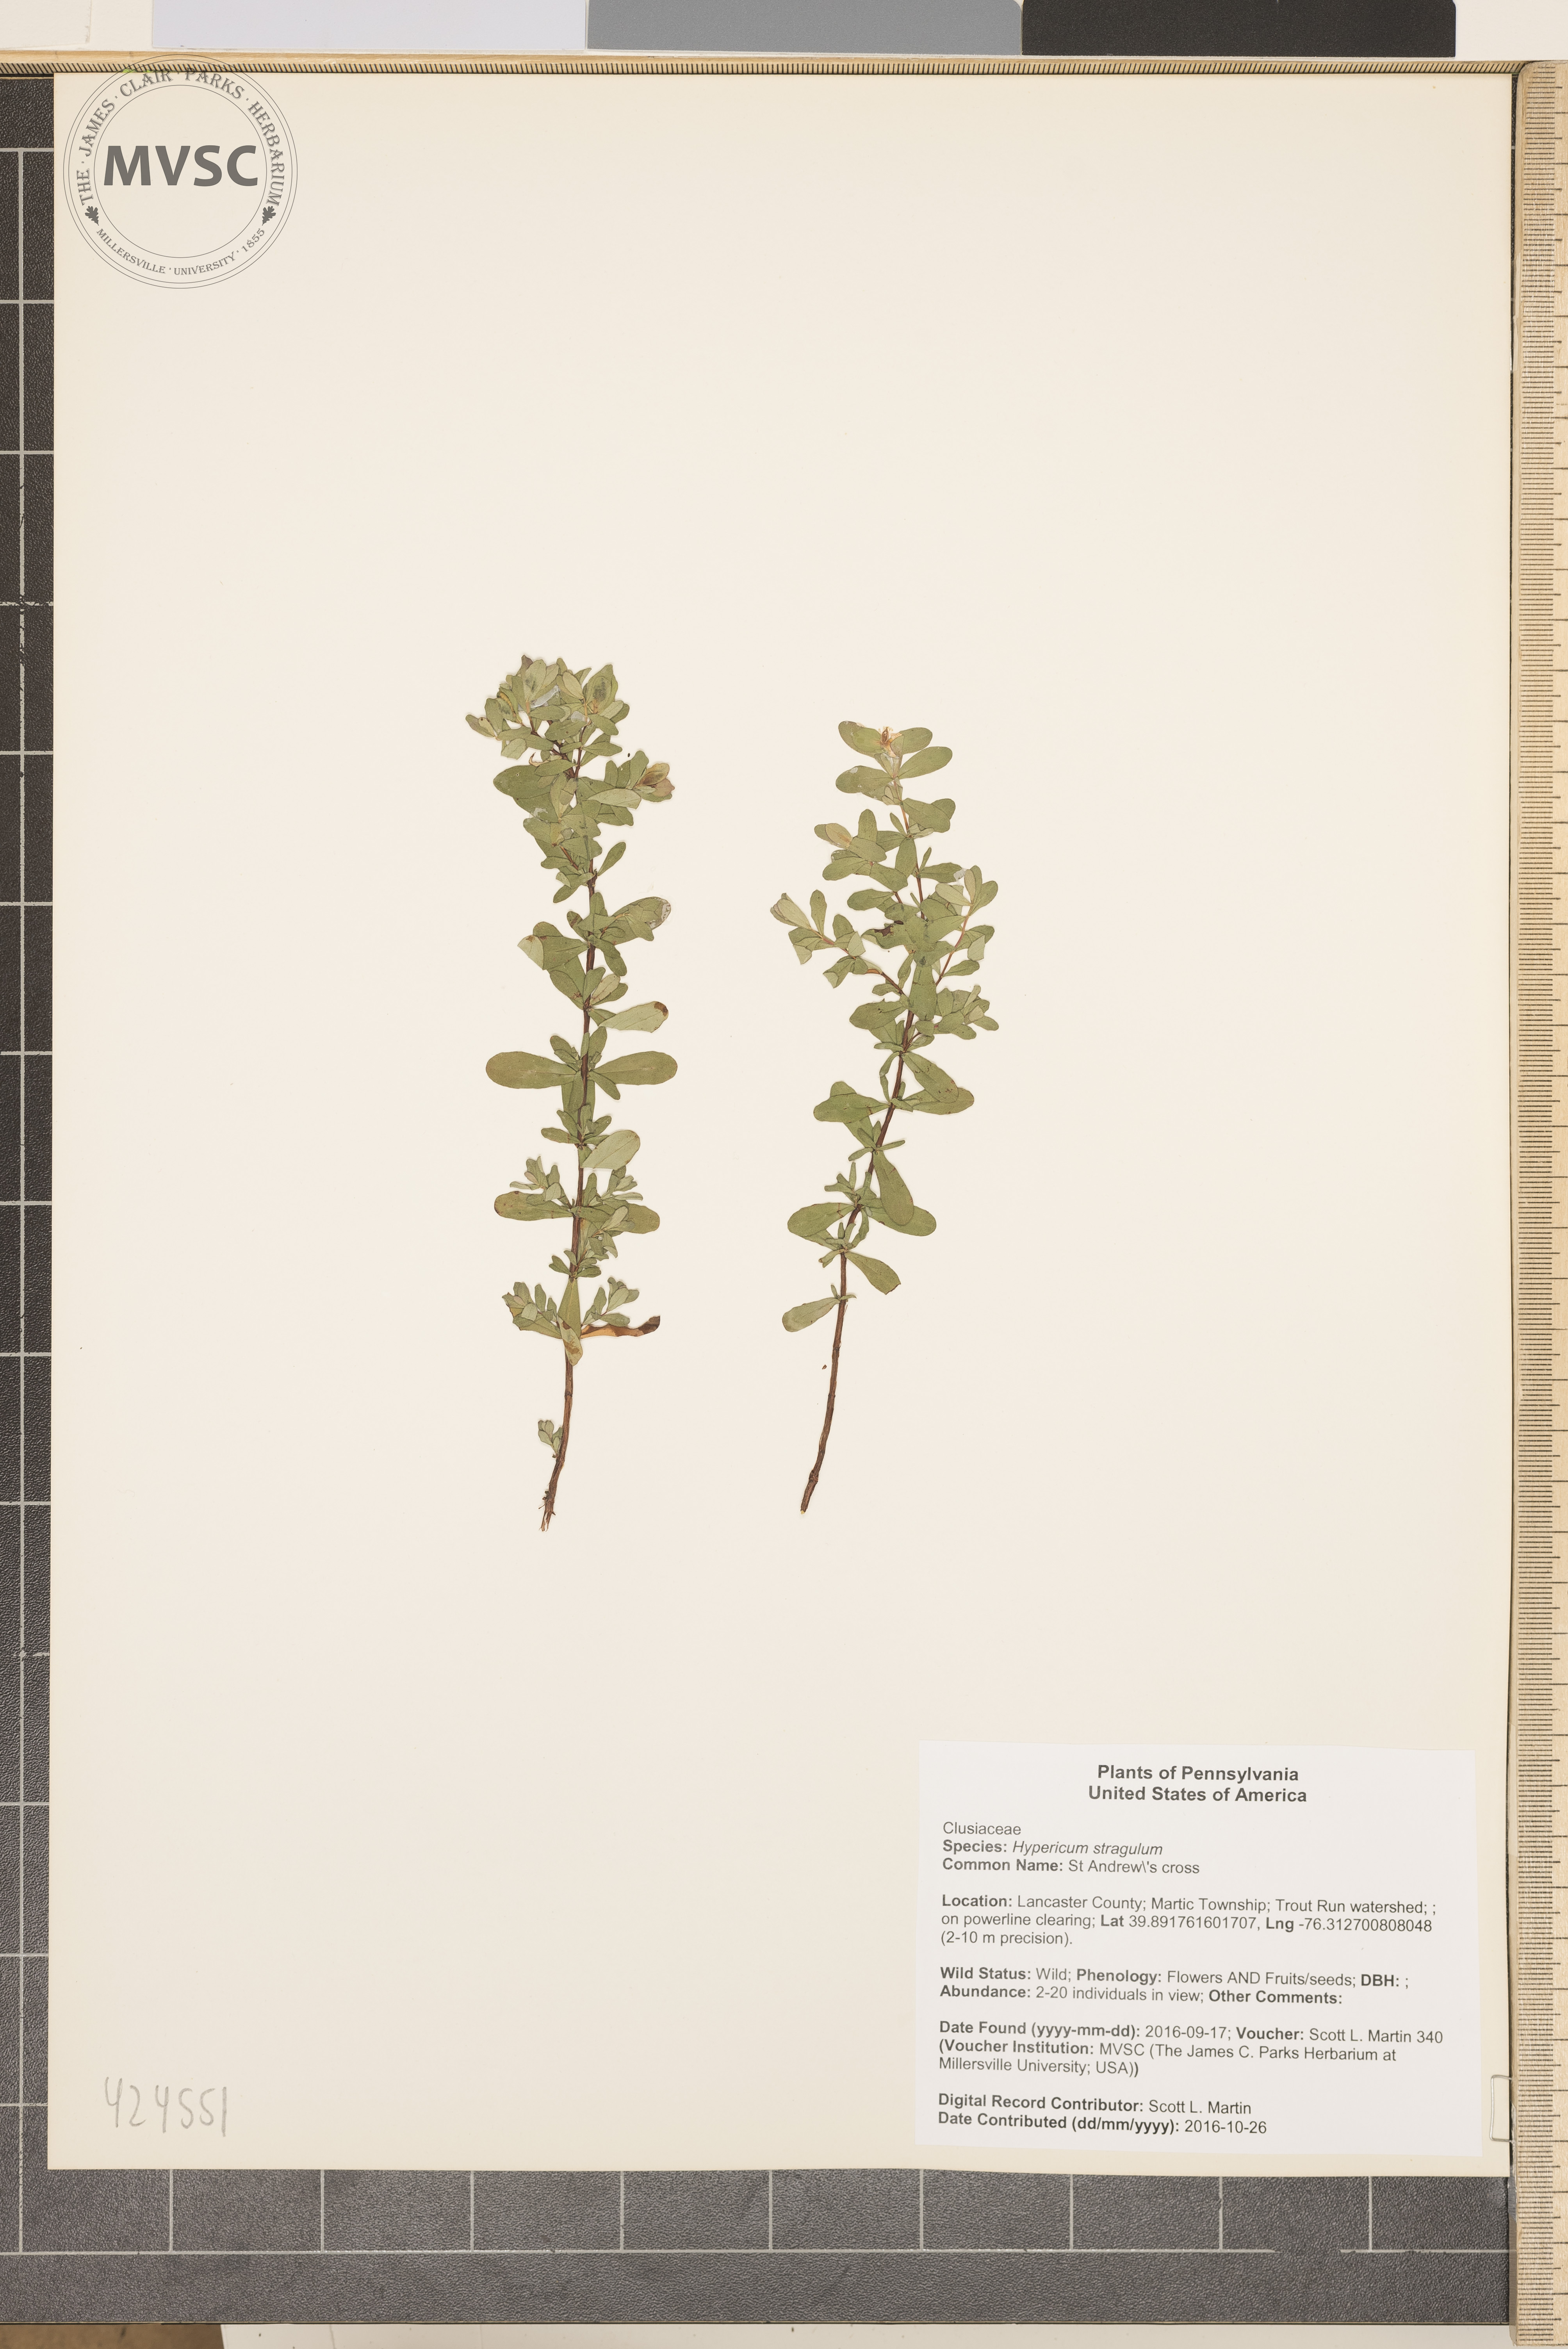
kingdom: Plantae
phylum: Tracheophyta
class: Magnoliopsida
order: Malpighiales
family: Hypericaceae
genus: Hypericum
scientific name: Hypericum hypericoides
